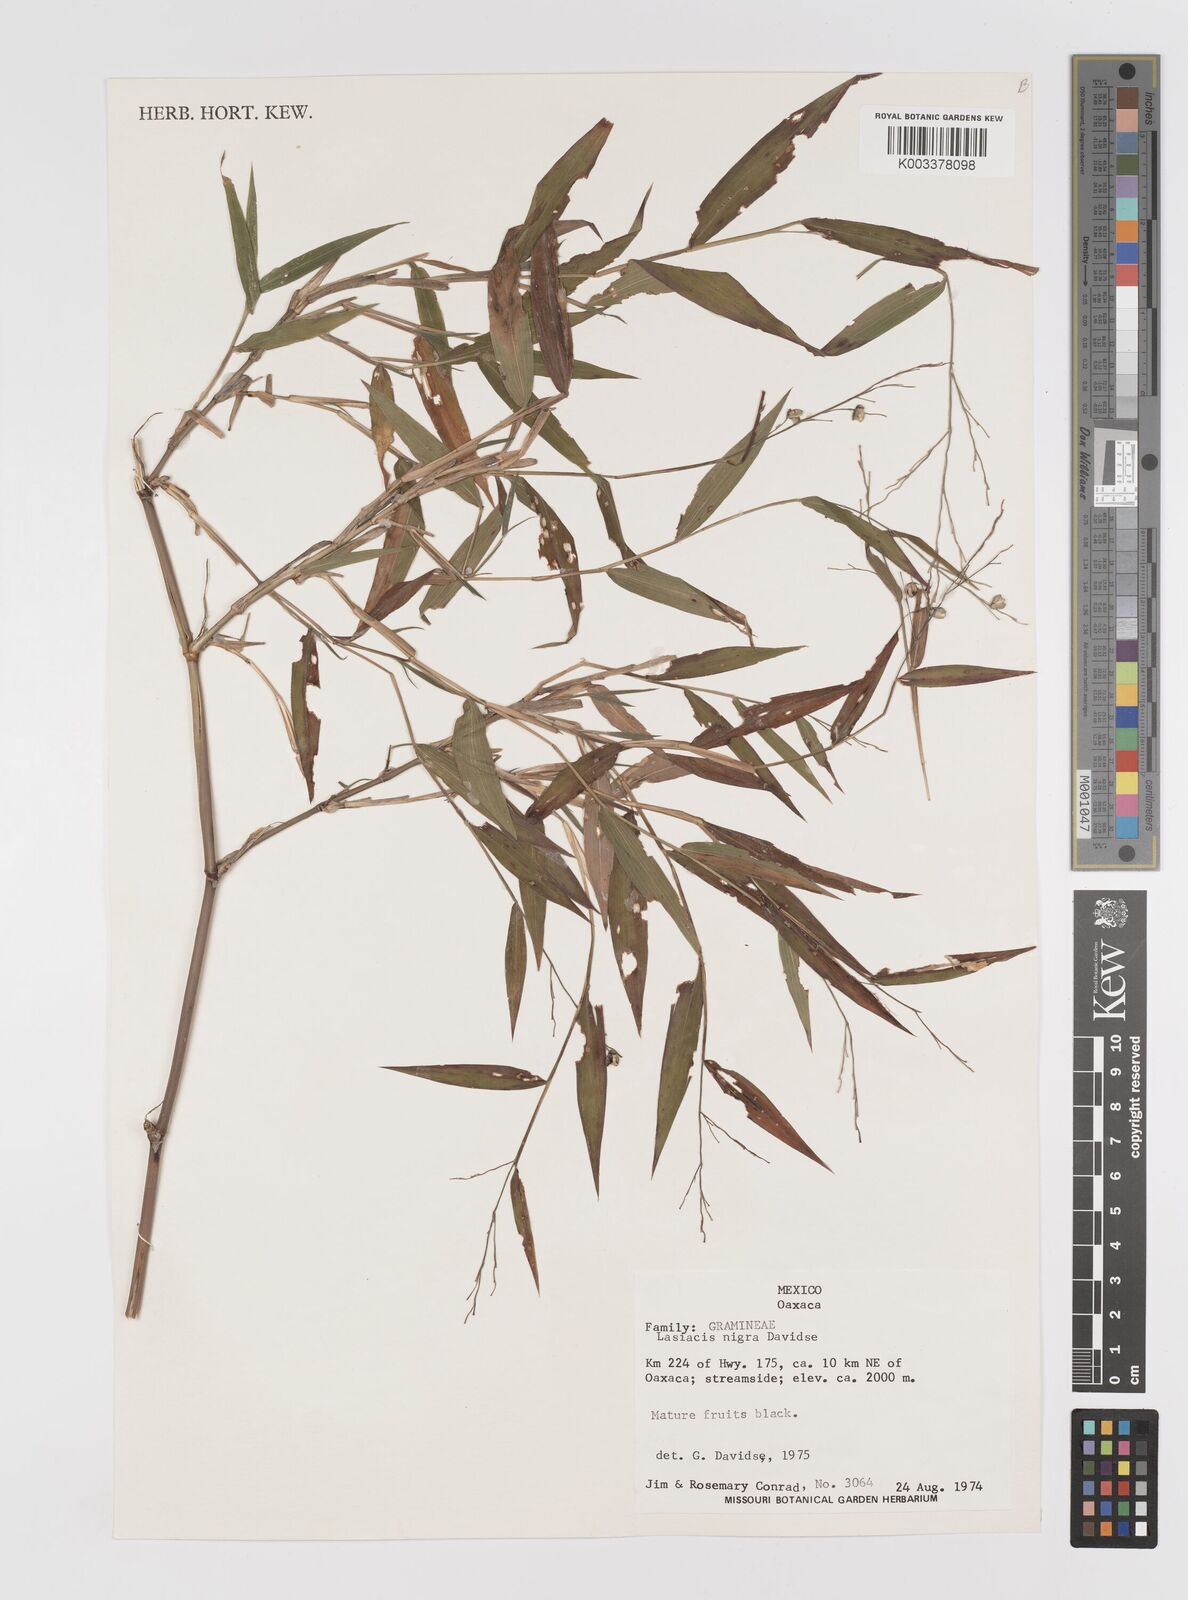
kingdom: Plantae
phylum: Tracheophyta
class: Liliopsida
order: Poales
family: Poaceae
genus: Lasiacis
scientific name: Lasiacis nigra
